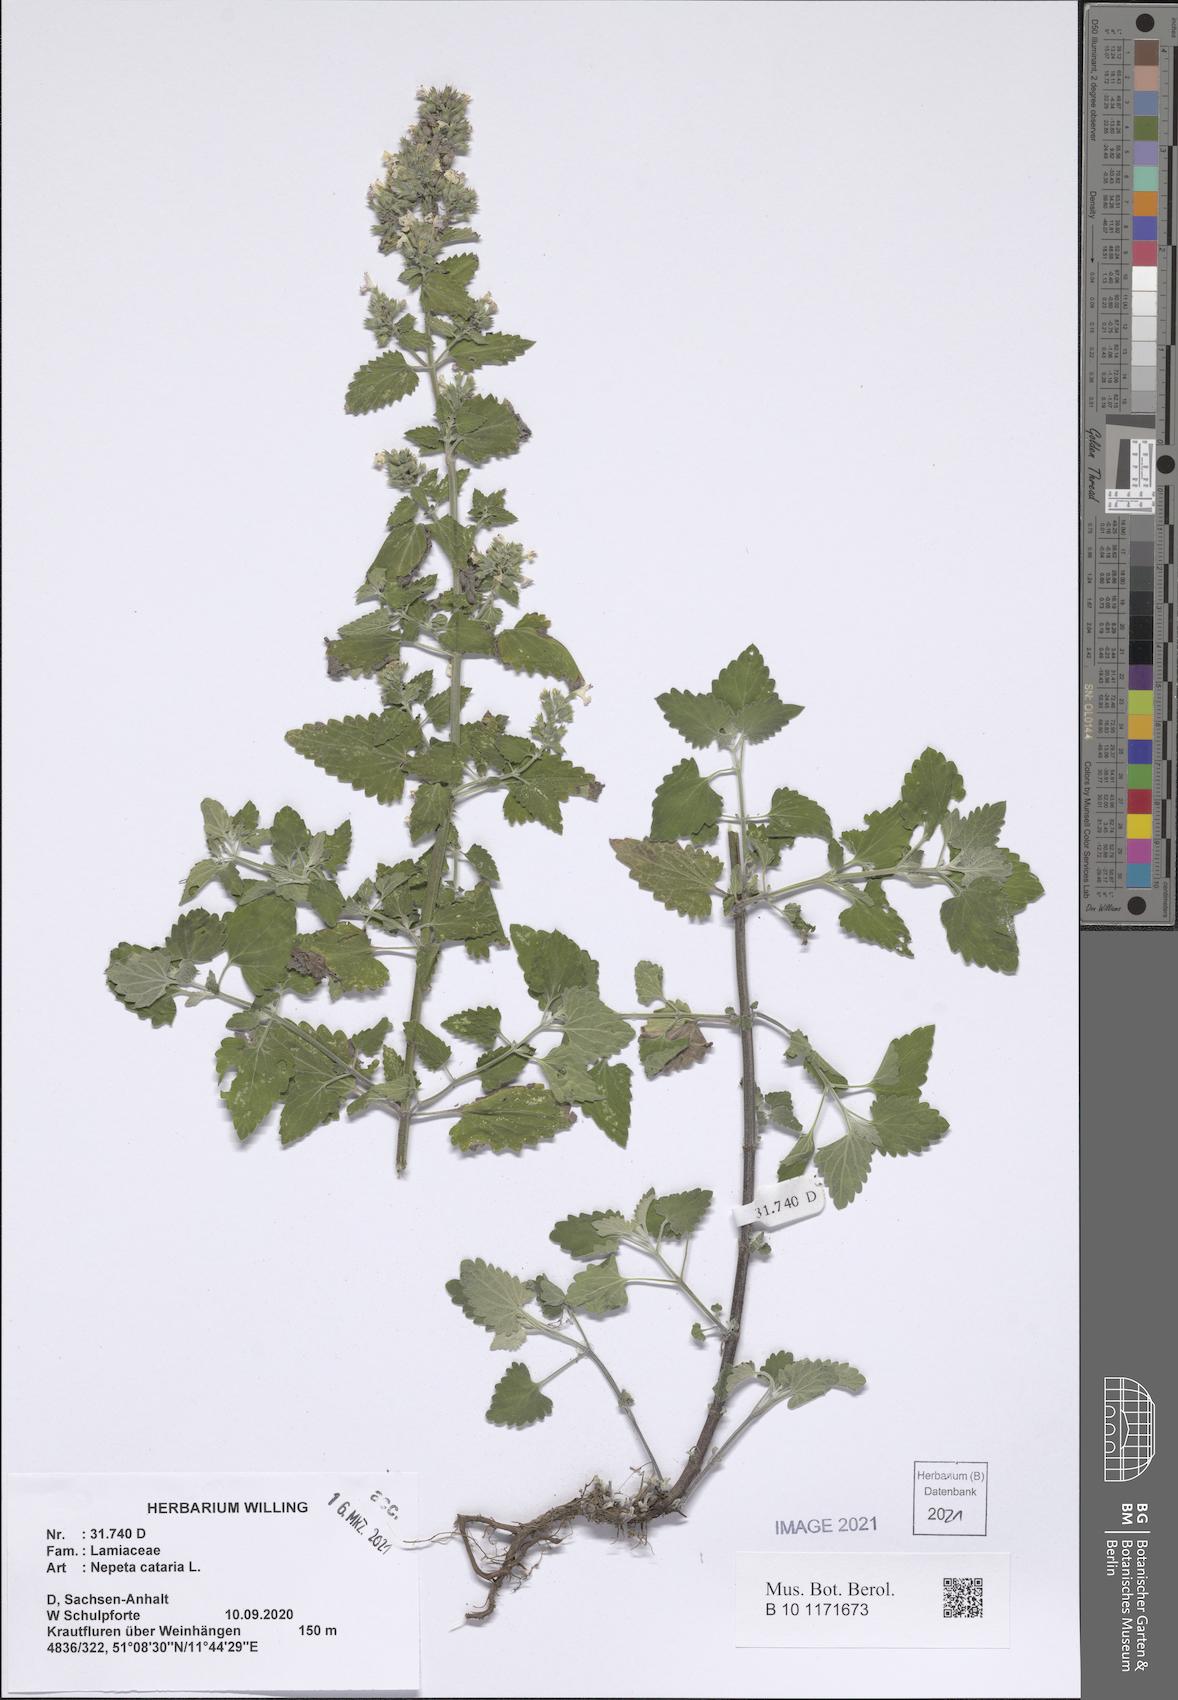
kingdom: Plantae
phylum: Tracheophyta
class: Magnoliopsida
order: Lamiales
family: Lamiaceae
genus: Nepeta
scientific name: Nepeta cataria
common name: Catnip
